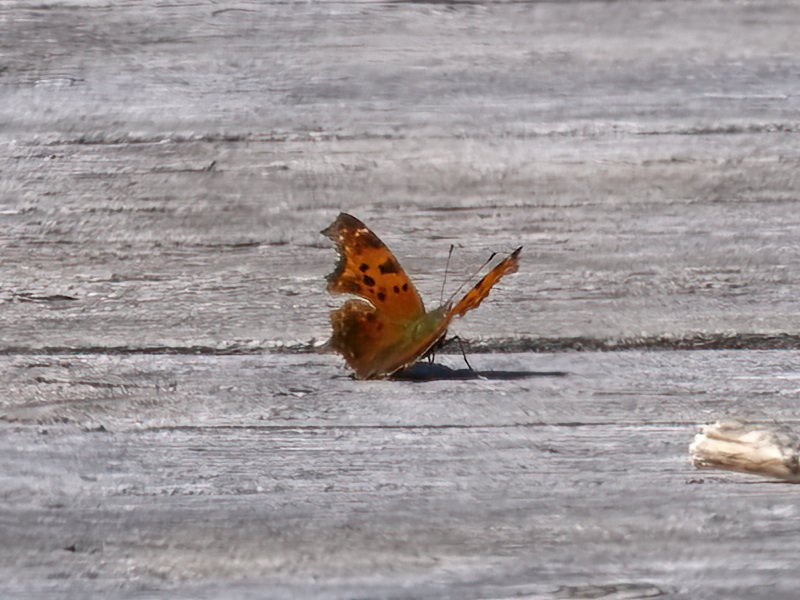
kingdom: Animalia
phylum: Arthropoda
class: Insecta
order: Lepidoptera
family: Nymphalidae
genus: Polygonia
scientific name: Polygonia comma
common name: Eastern Comma
